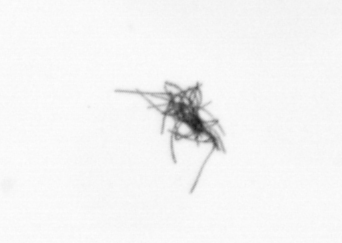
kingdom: Bacteria
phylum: Cyanobacteria
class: Cyanobacteriia
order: Cyanobacteriales
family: Microcoleaceae
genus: Trichodesmium
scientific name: Trichodesmium
